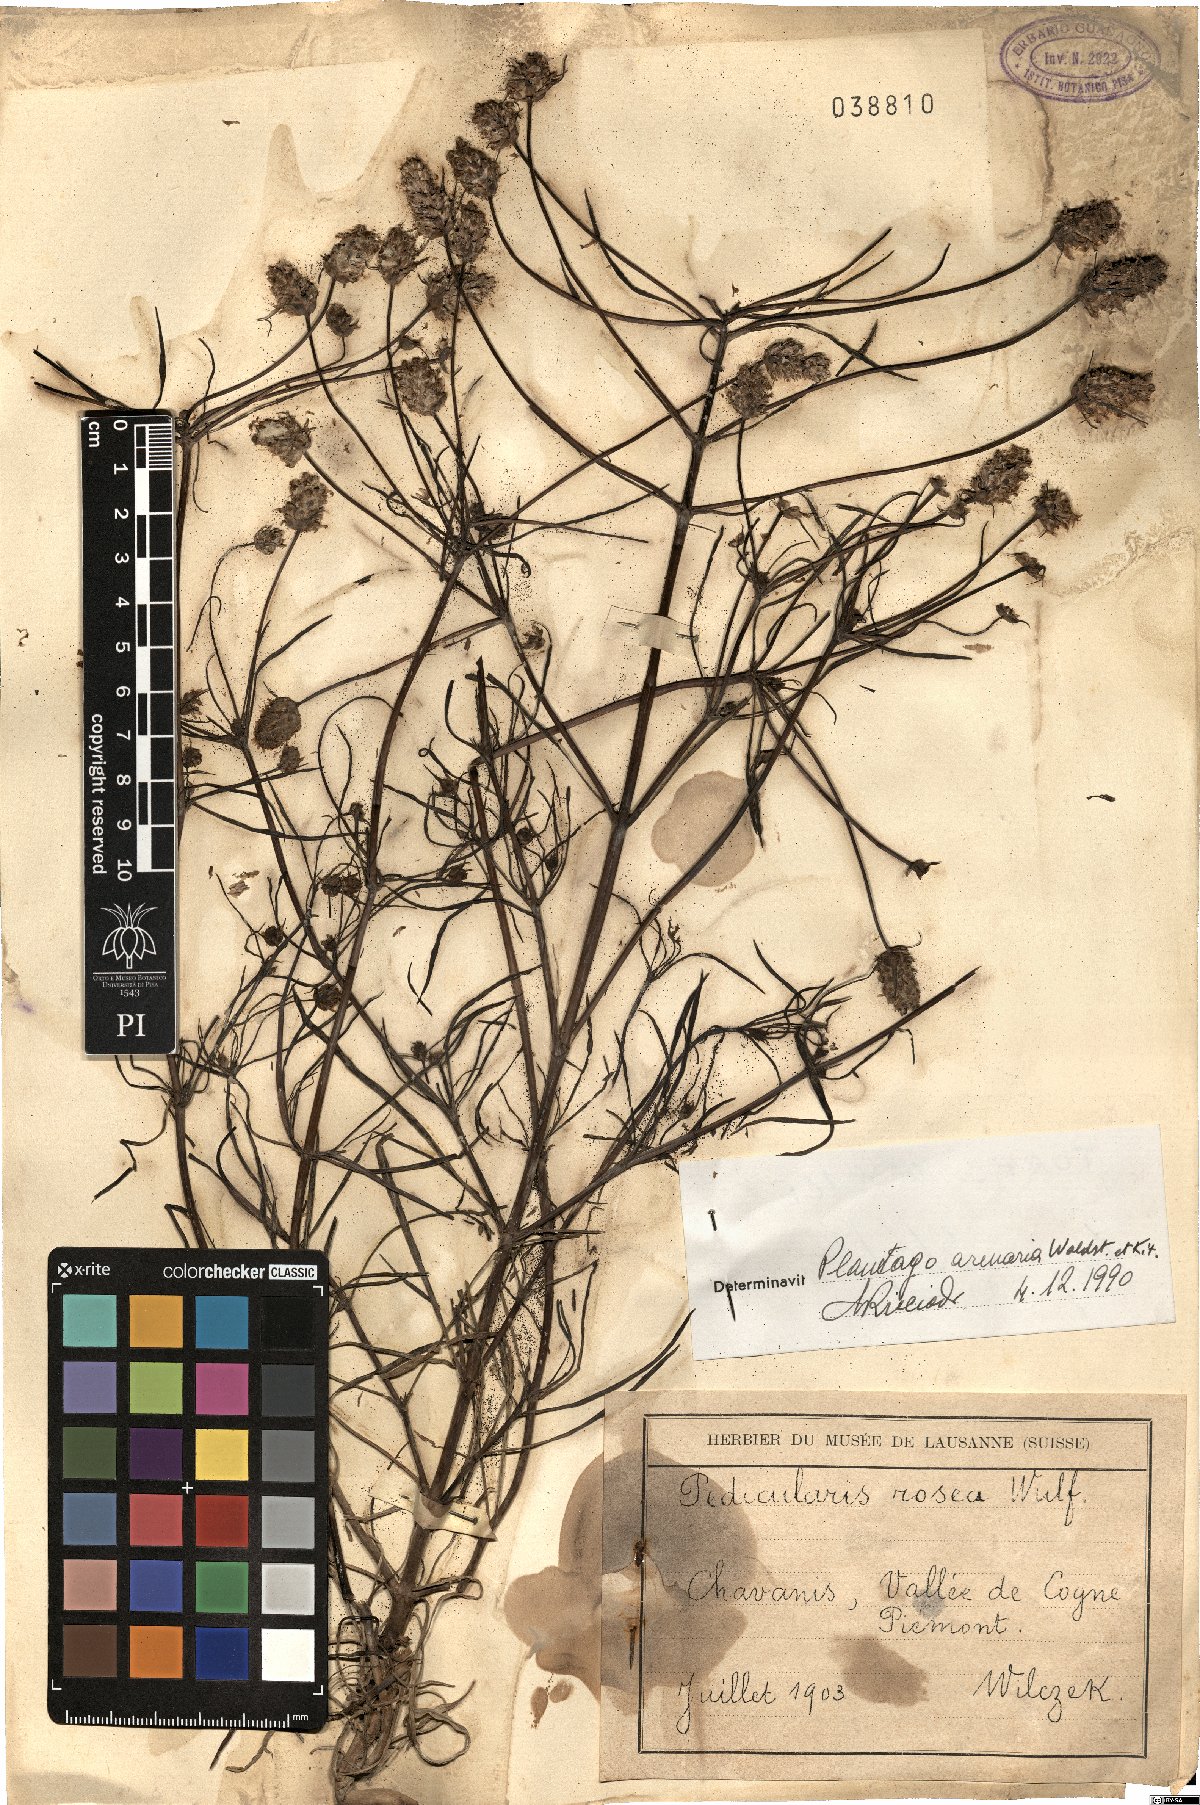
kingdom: Plantae
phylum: Tracheophyta
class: Magnoliopsida
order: Lamiales
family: Plantaginaceae
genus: Plantago
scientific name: Plantago arenaria
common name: Branched plantain
